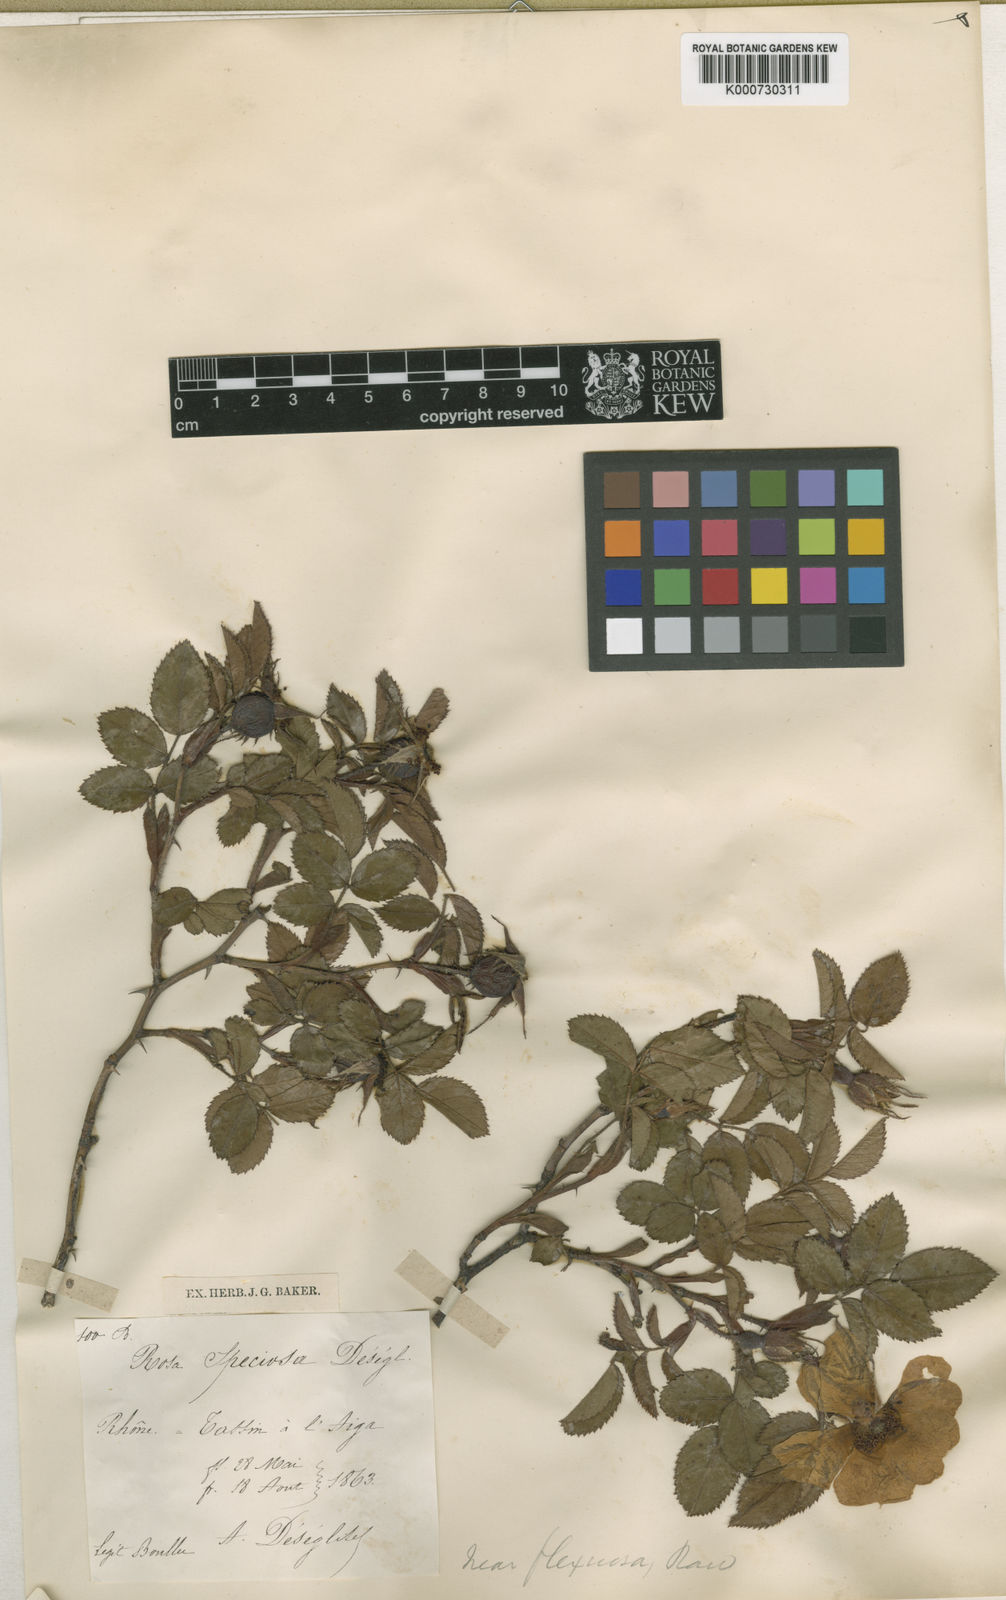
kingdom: Plantae
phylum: Tracheophyta
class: Magnoliopsida
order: Rosales
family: Rosaceae
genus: Rosa
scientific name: Rosa marginata
